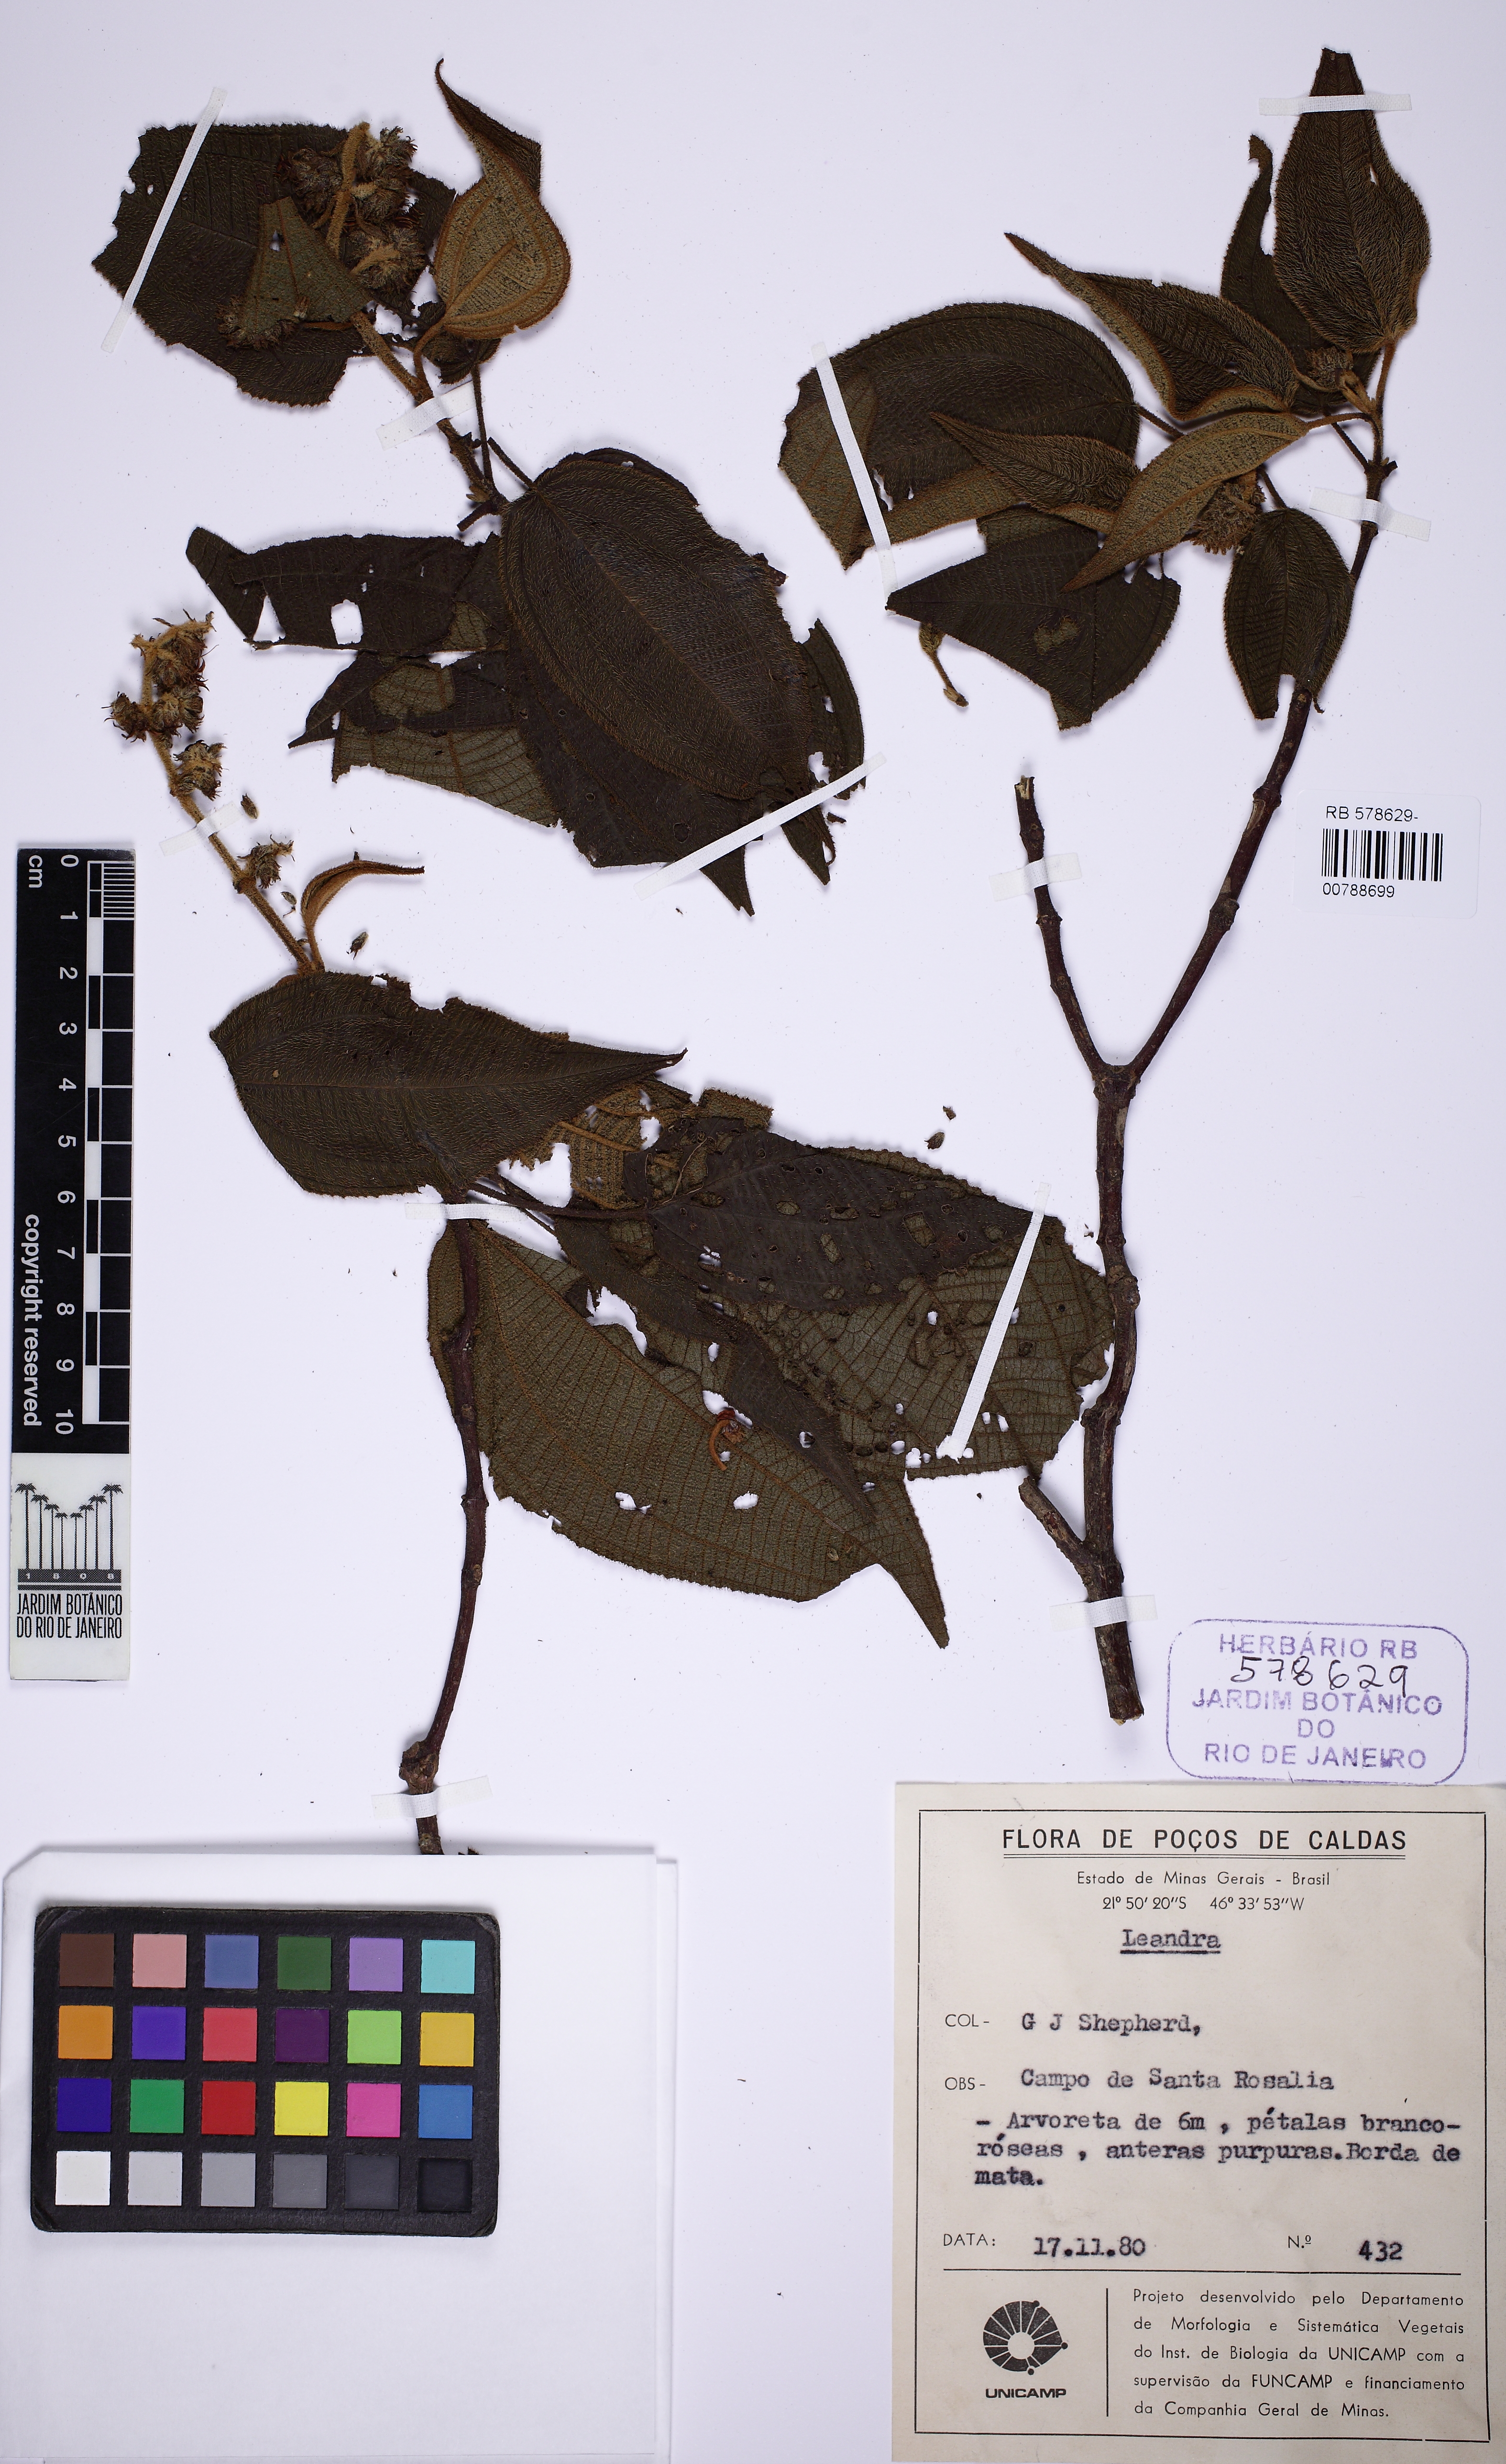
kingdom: Plantae
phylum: Tracheophyta
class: Magnoliopsida
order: Myrtales
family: Melastomataceae
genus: Miconia
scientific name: Miconia
